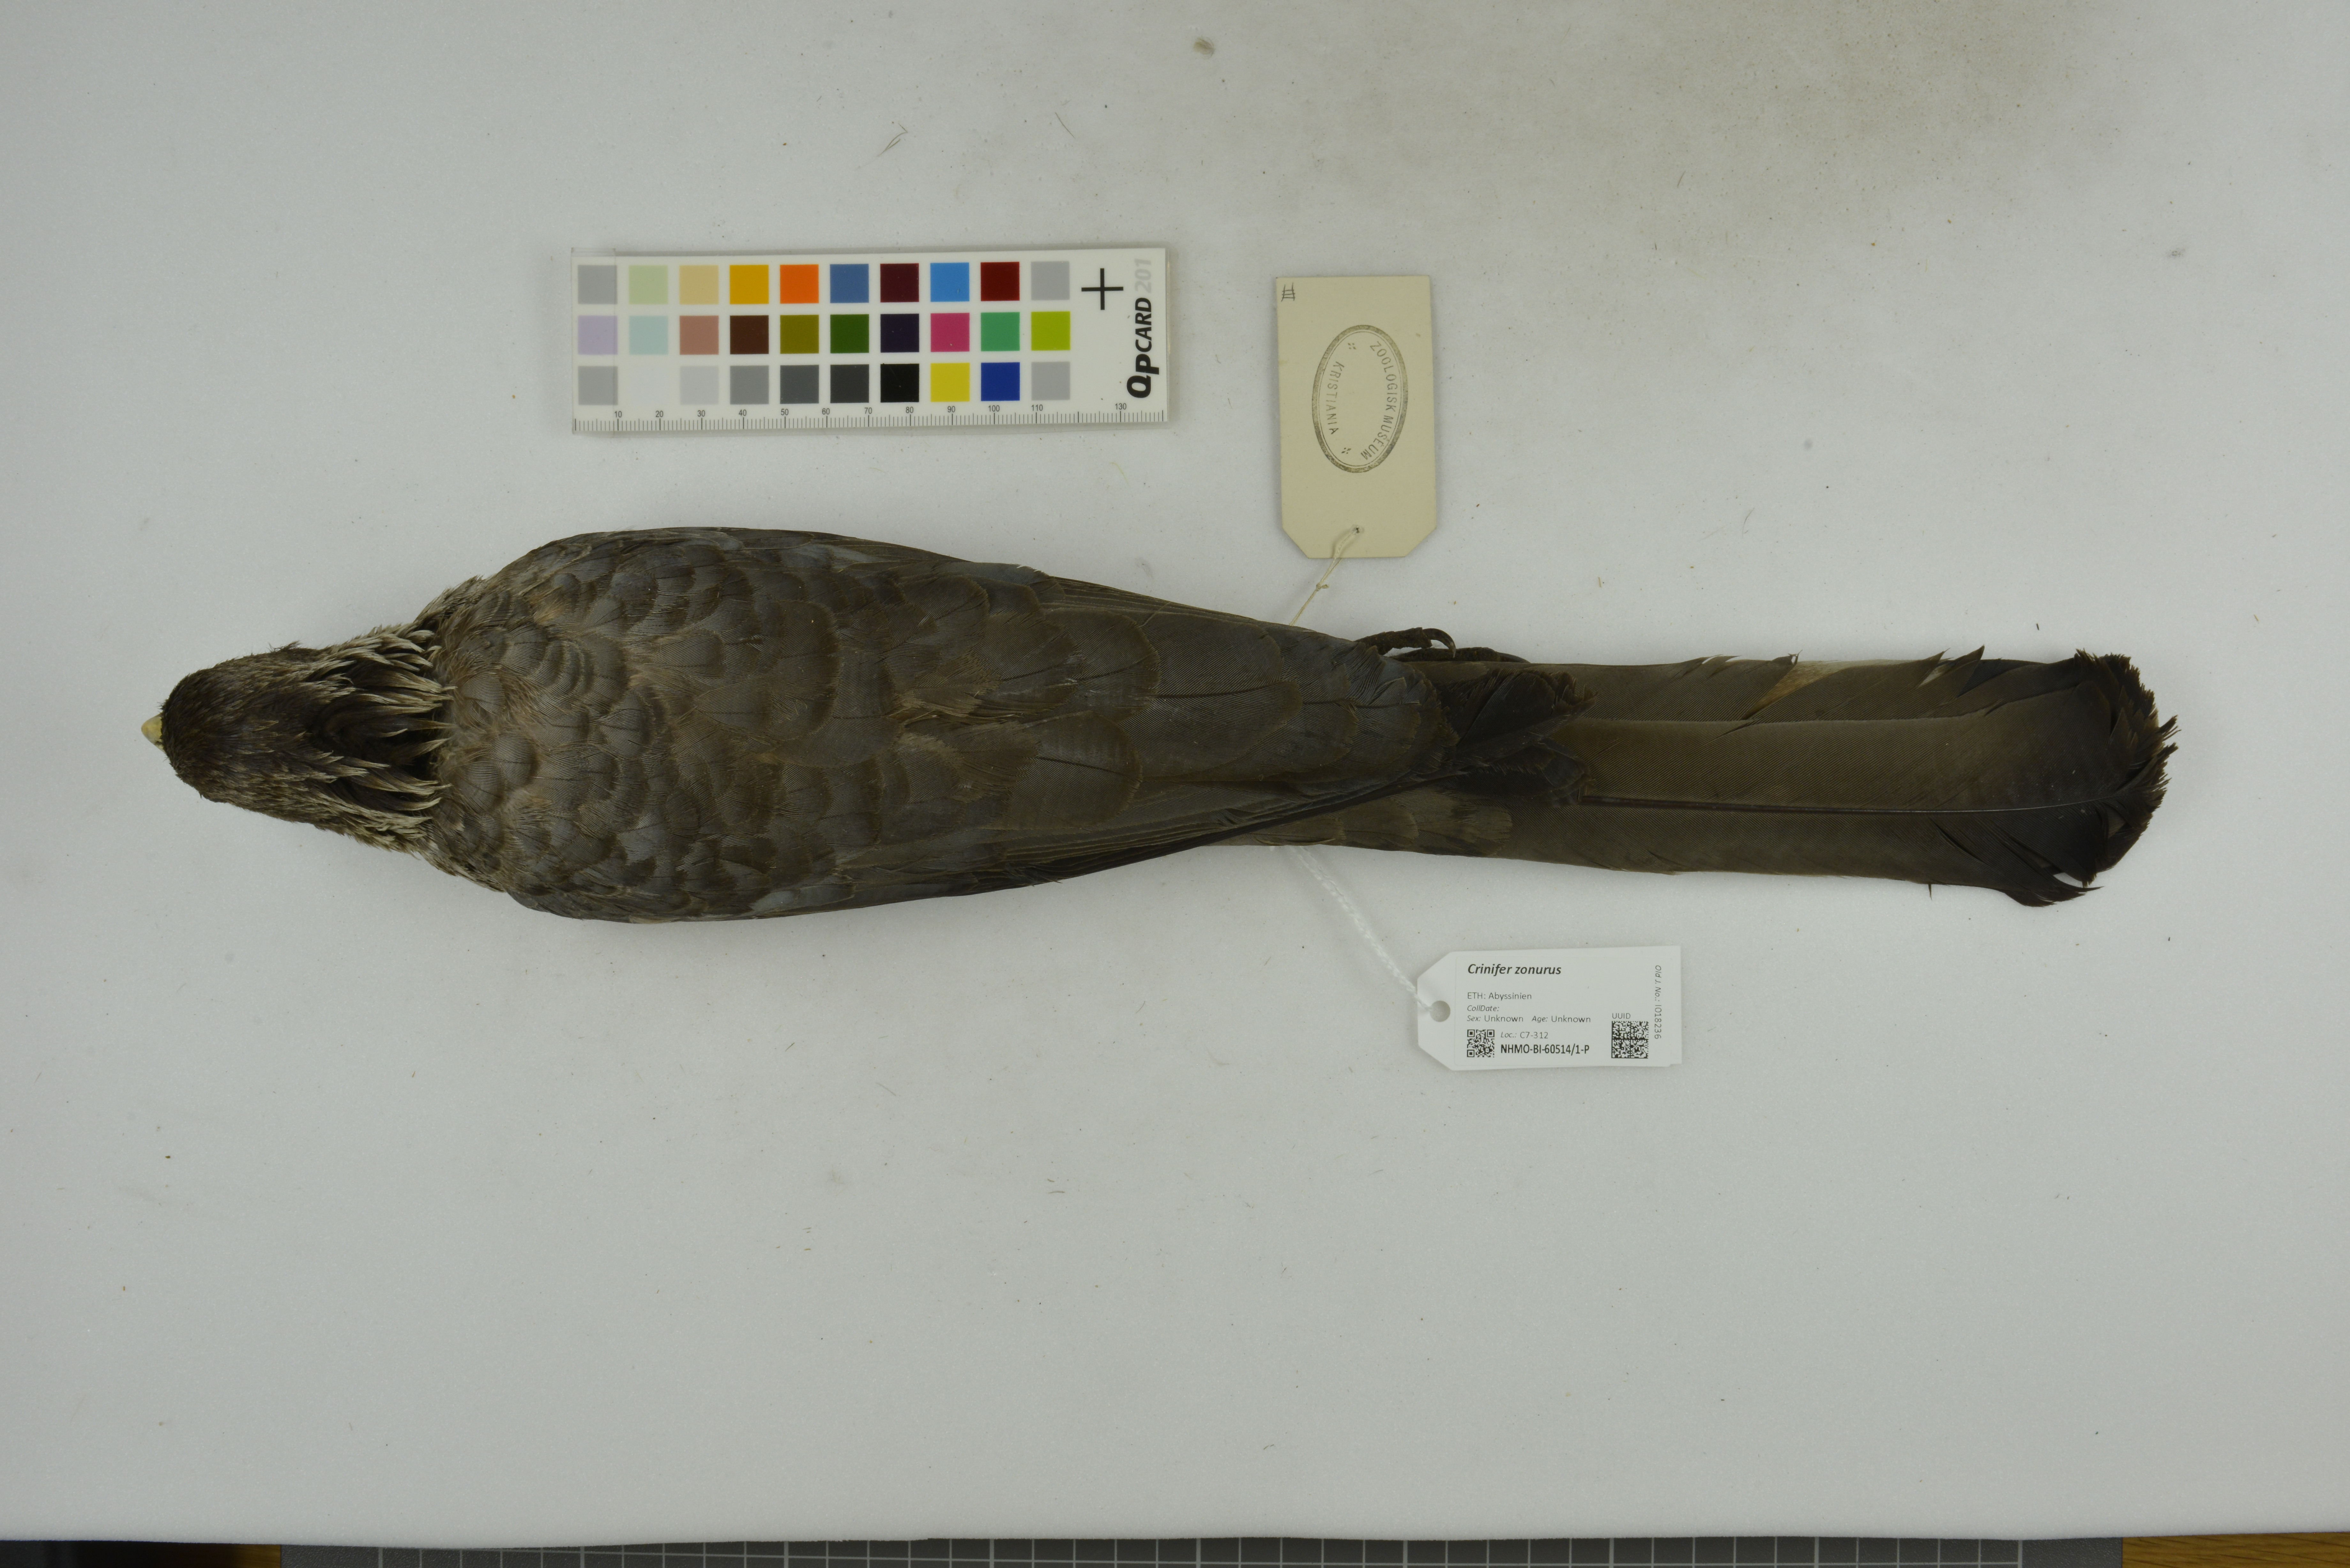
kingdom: Animalia
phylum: Chordata
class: Aves
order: Musophagiformes
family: Musophagidae
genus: Crinifer
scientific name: Crinifer zonurus
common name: Eastern plantain-eater
